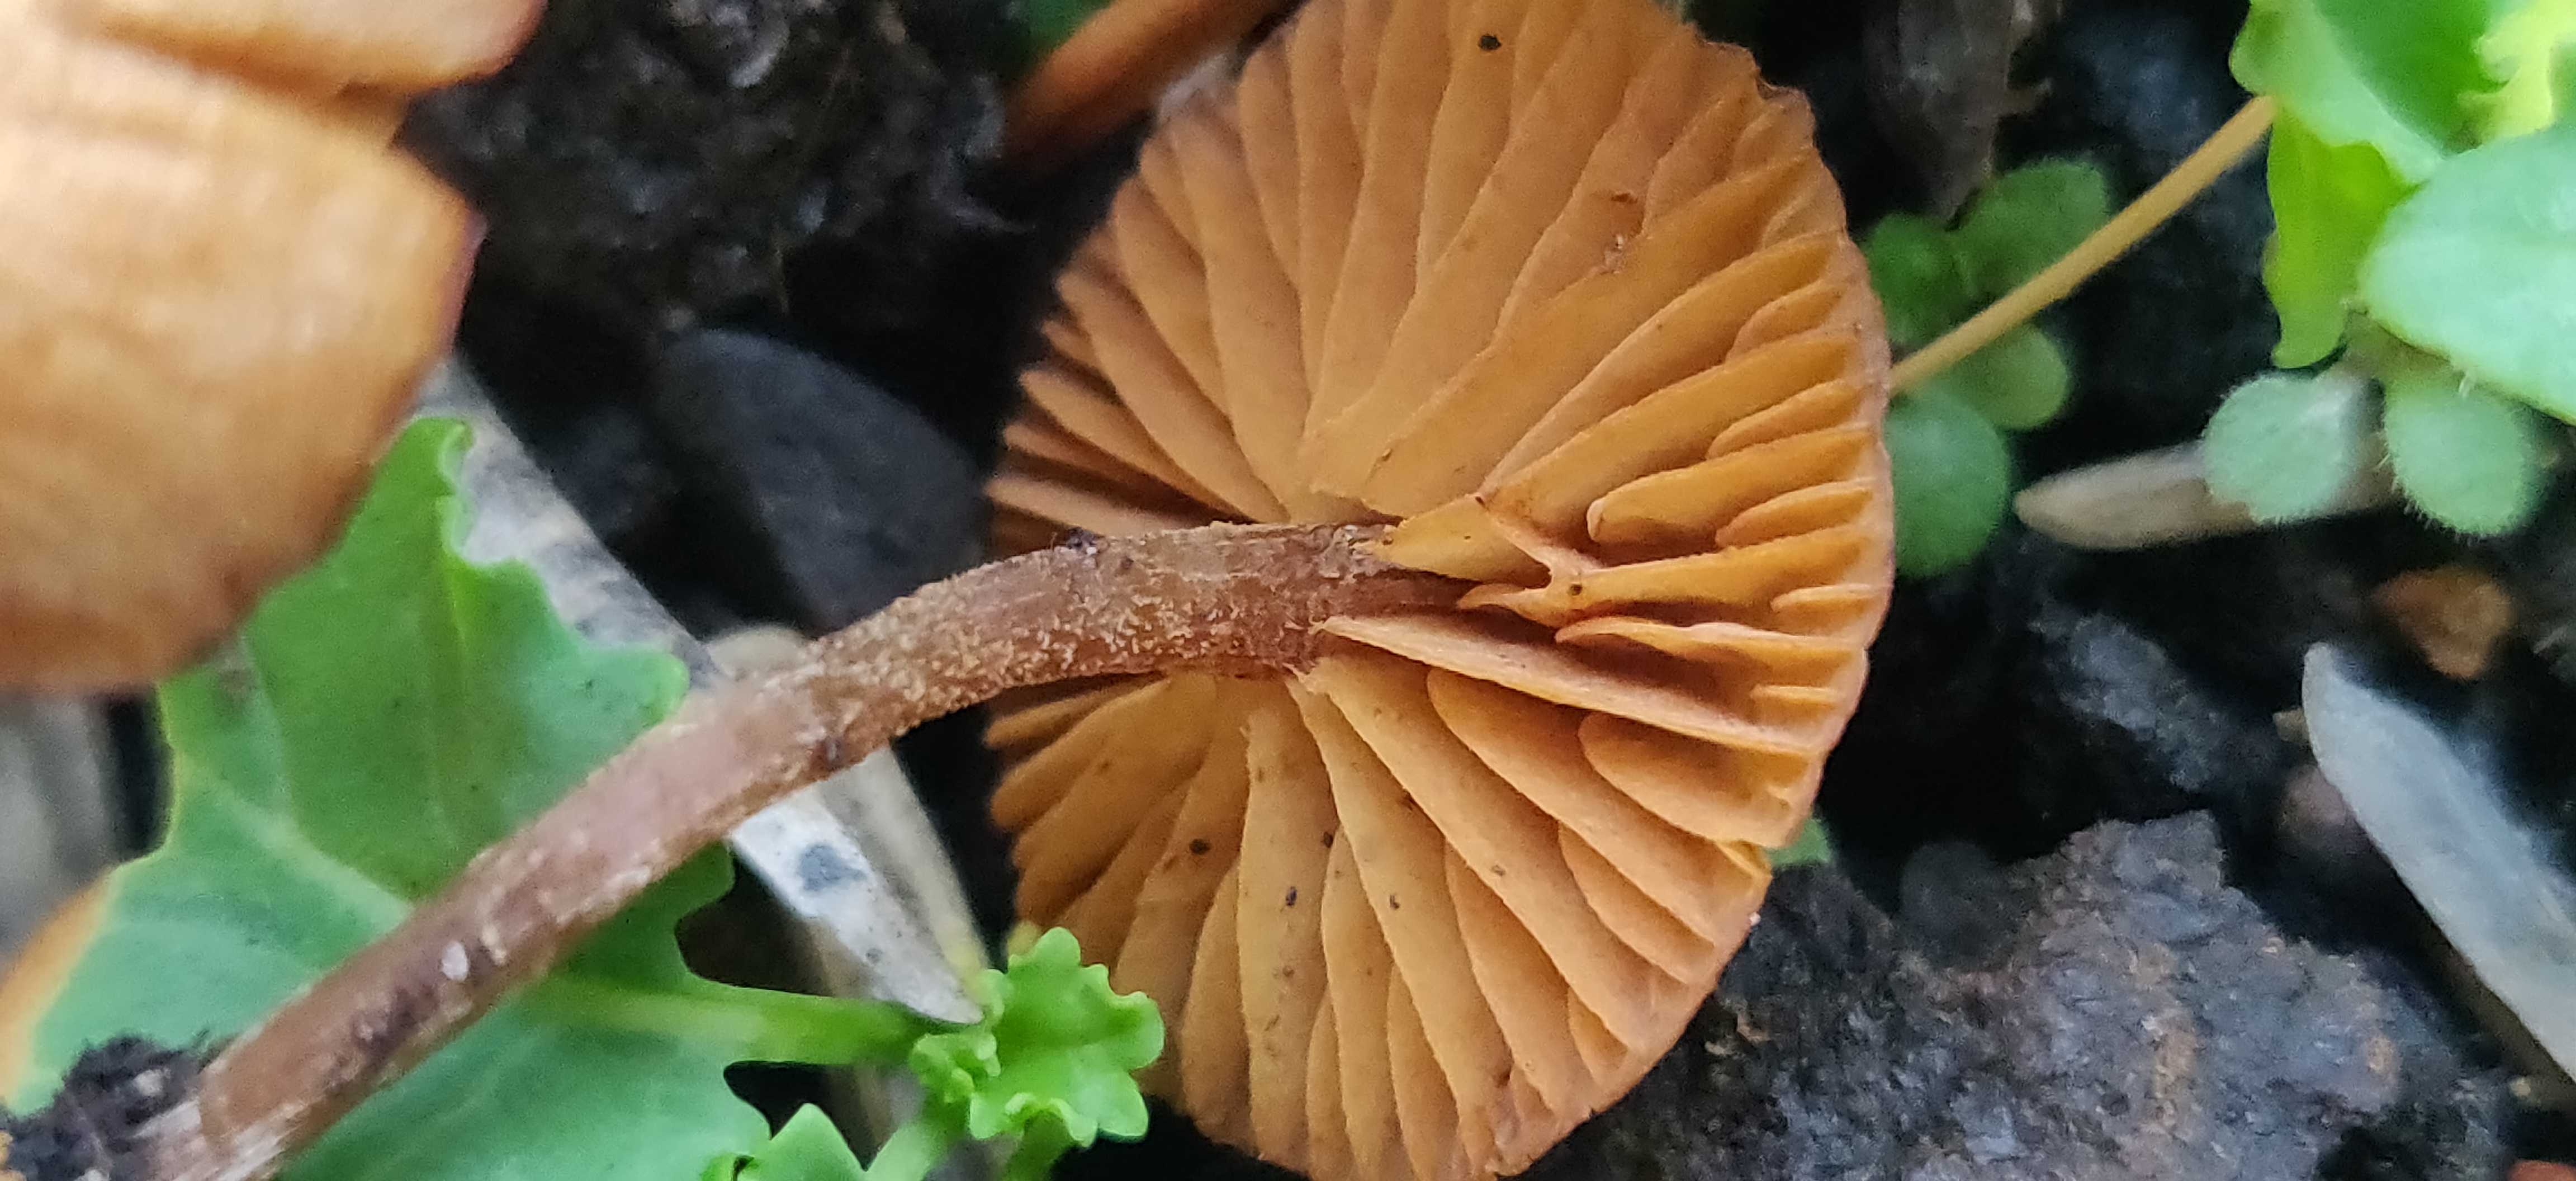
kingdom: Fungi
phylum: Basidiomycota
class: Agaricomycetes
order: Agaricales
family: Hymenogastraceae
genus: Galerina
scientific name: Galerina nana
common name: dværg-hjelmhat
